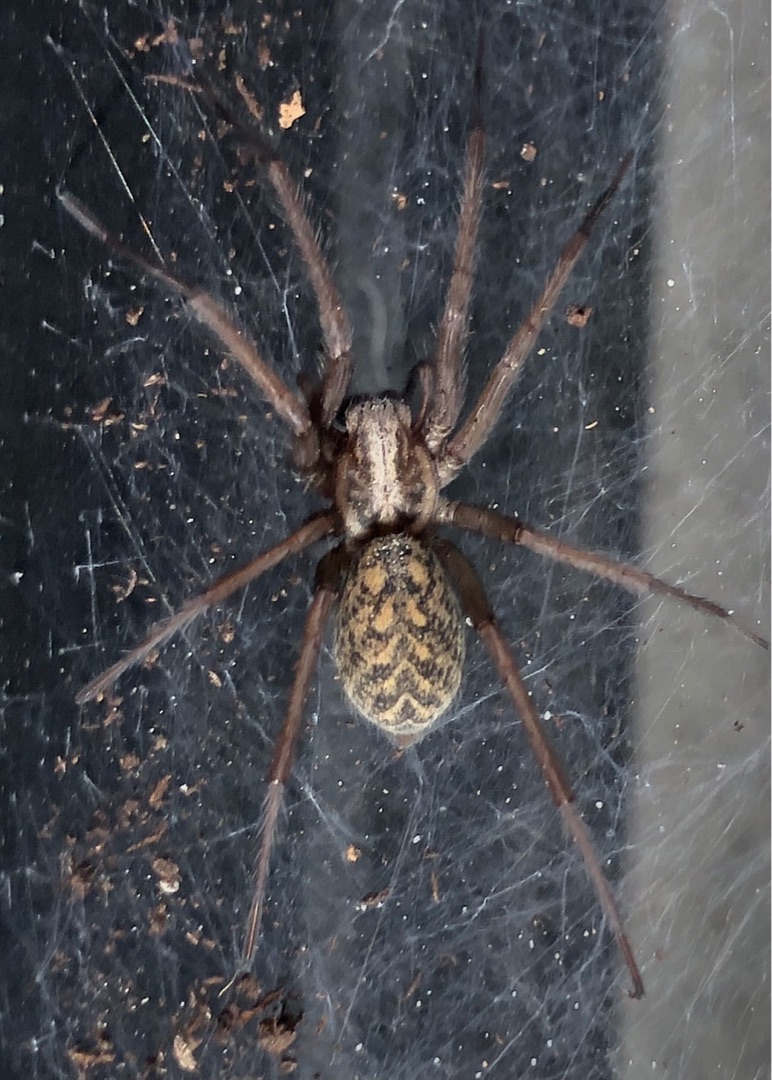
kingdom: Animalia
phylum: Arthropoda
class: Arachnida
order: Araneae
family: Agelenidae
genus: Eratigena
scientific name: Eratigena atrica
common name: Stor husedderkop
